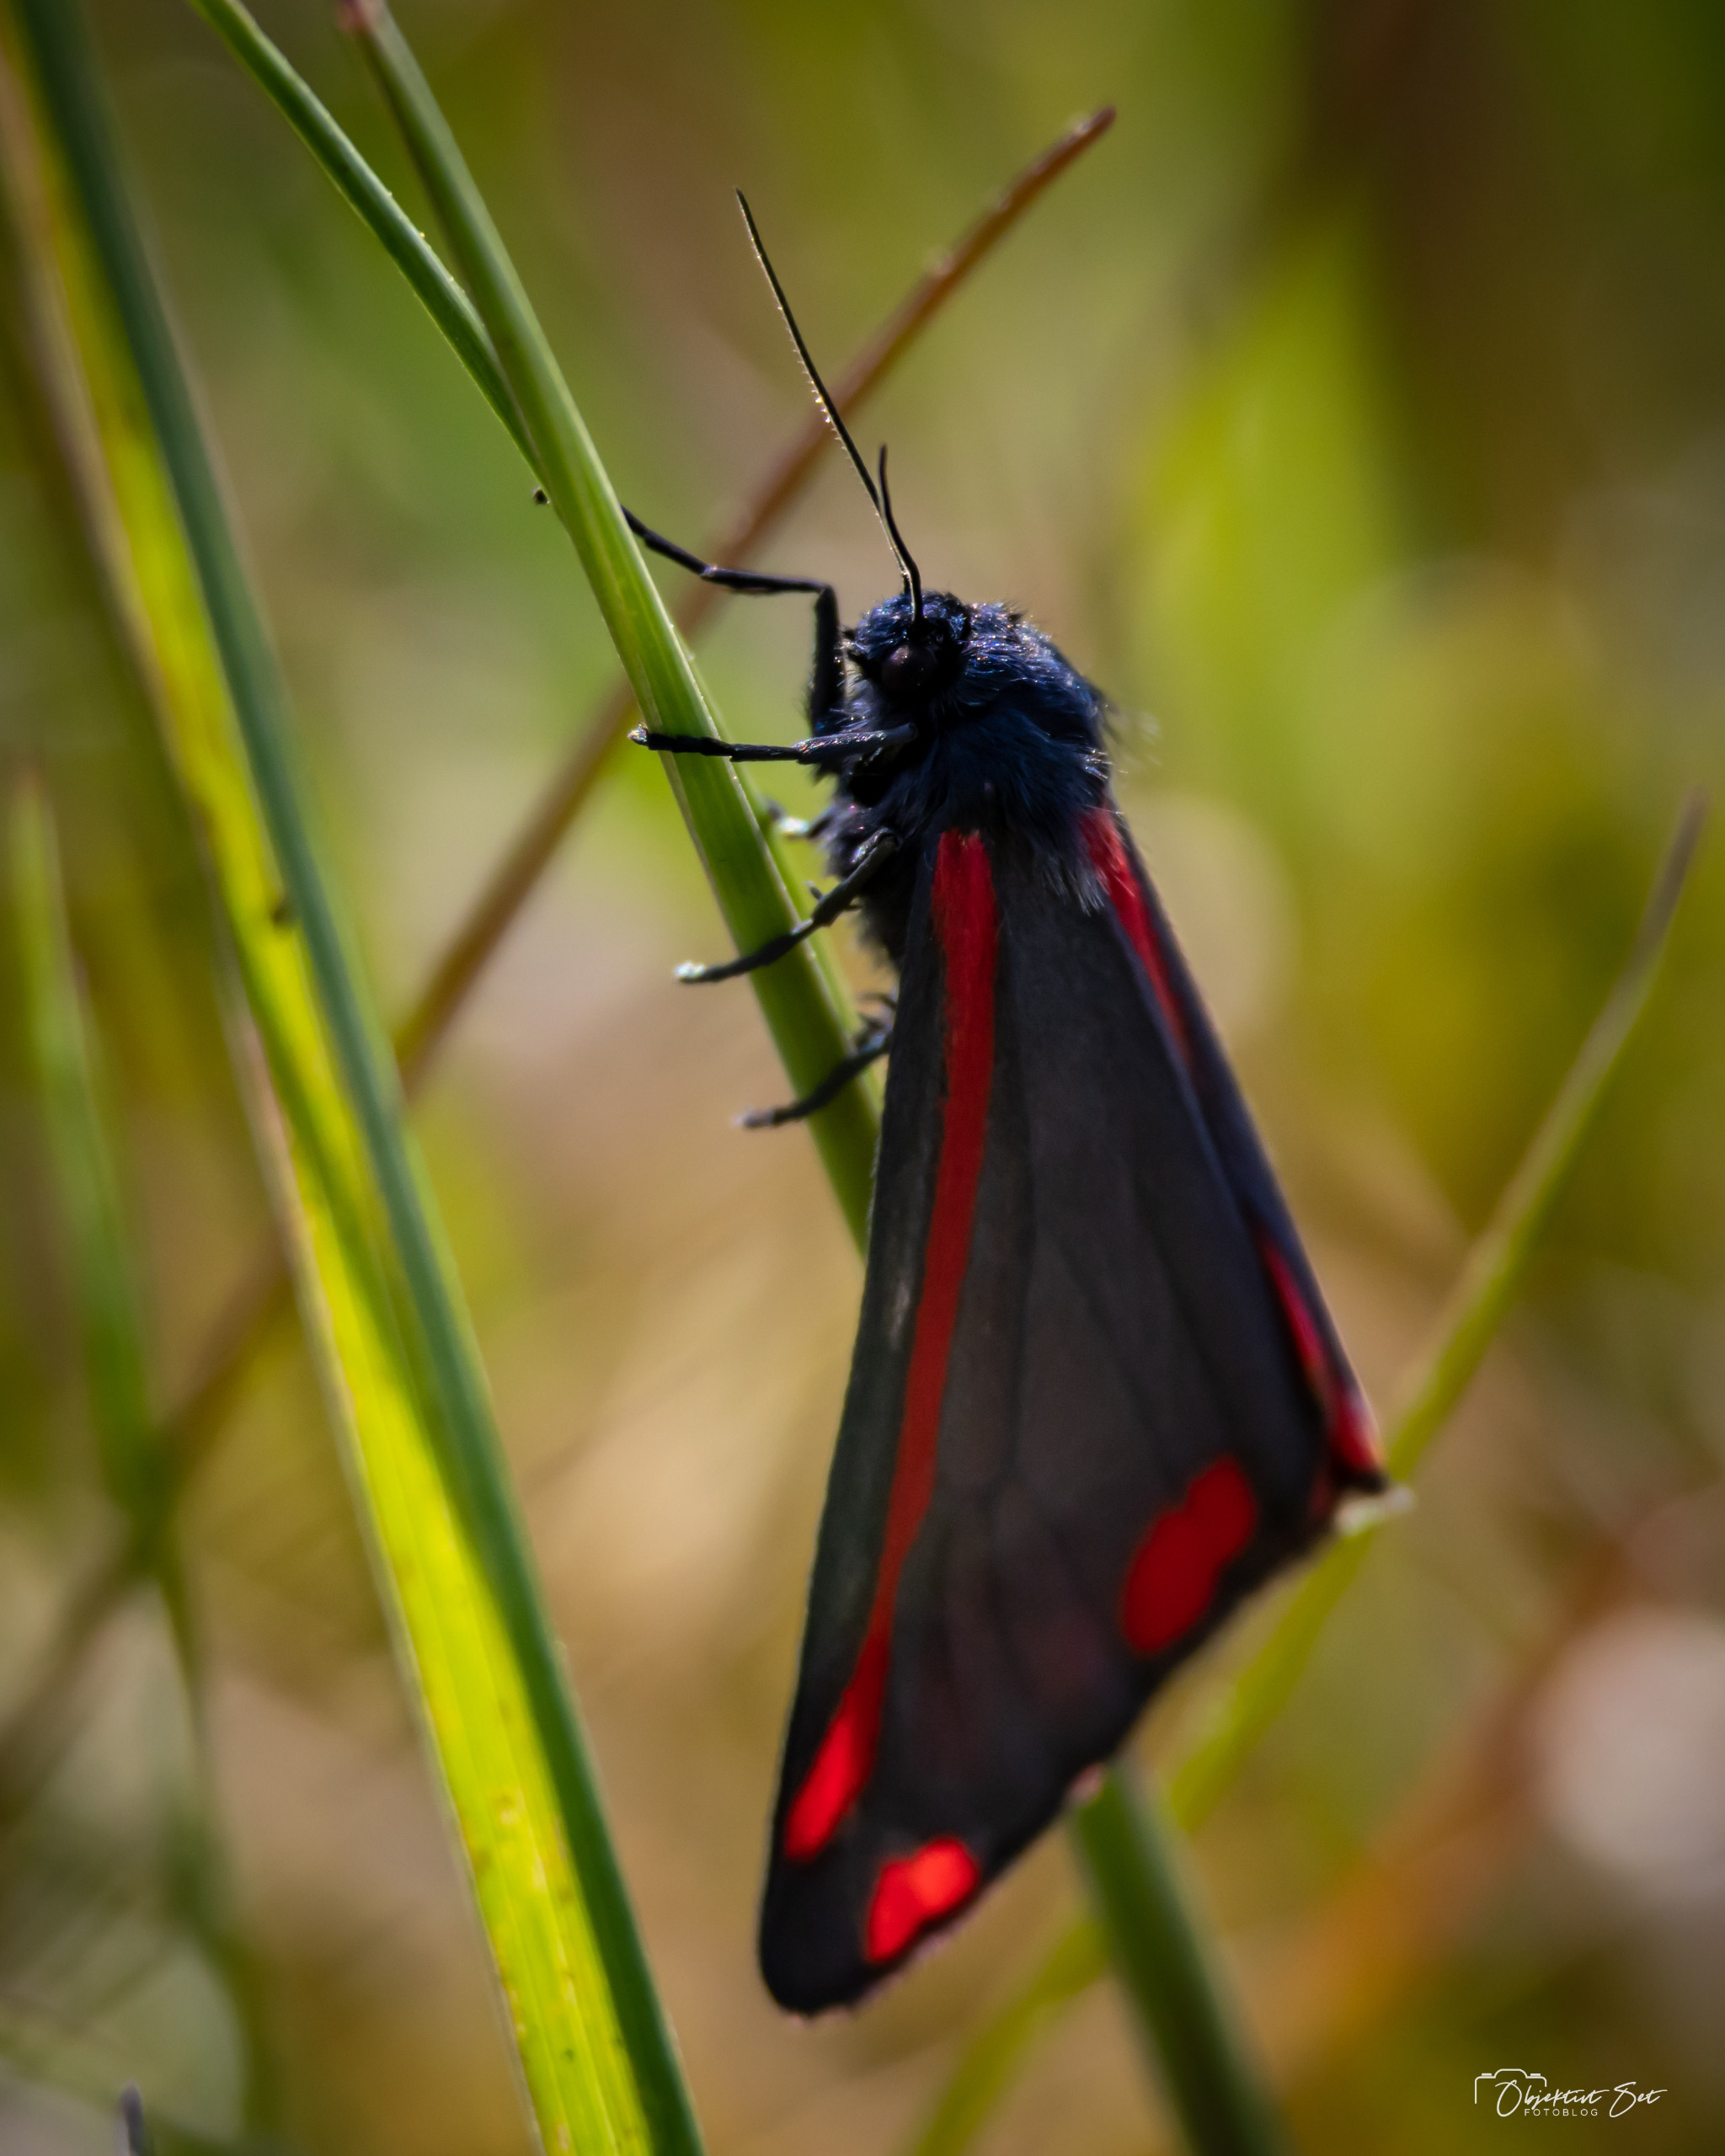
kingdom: Animalia
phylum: Arthropoda
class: Insecta
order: Lepidoptera
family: Erebidae
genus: Tyria
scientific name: Tyria jacobaeae
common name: Blodplet
